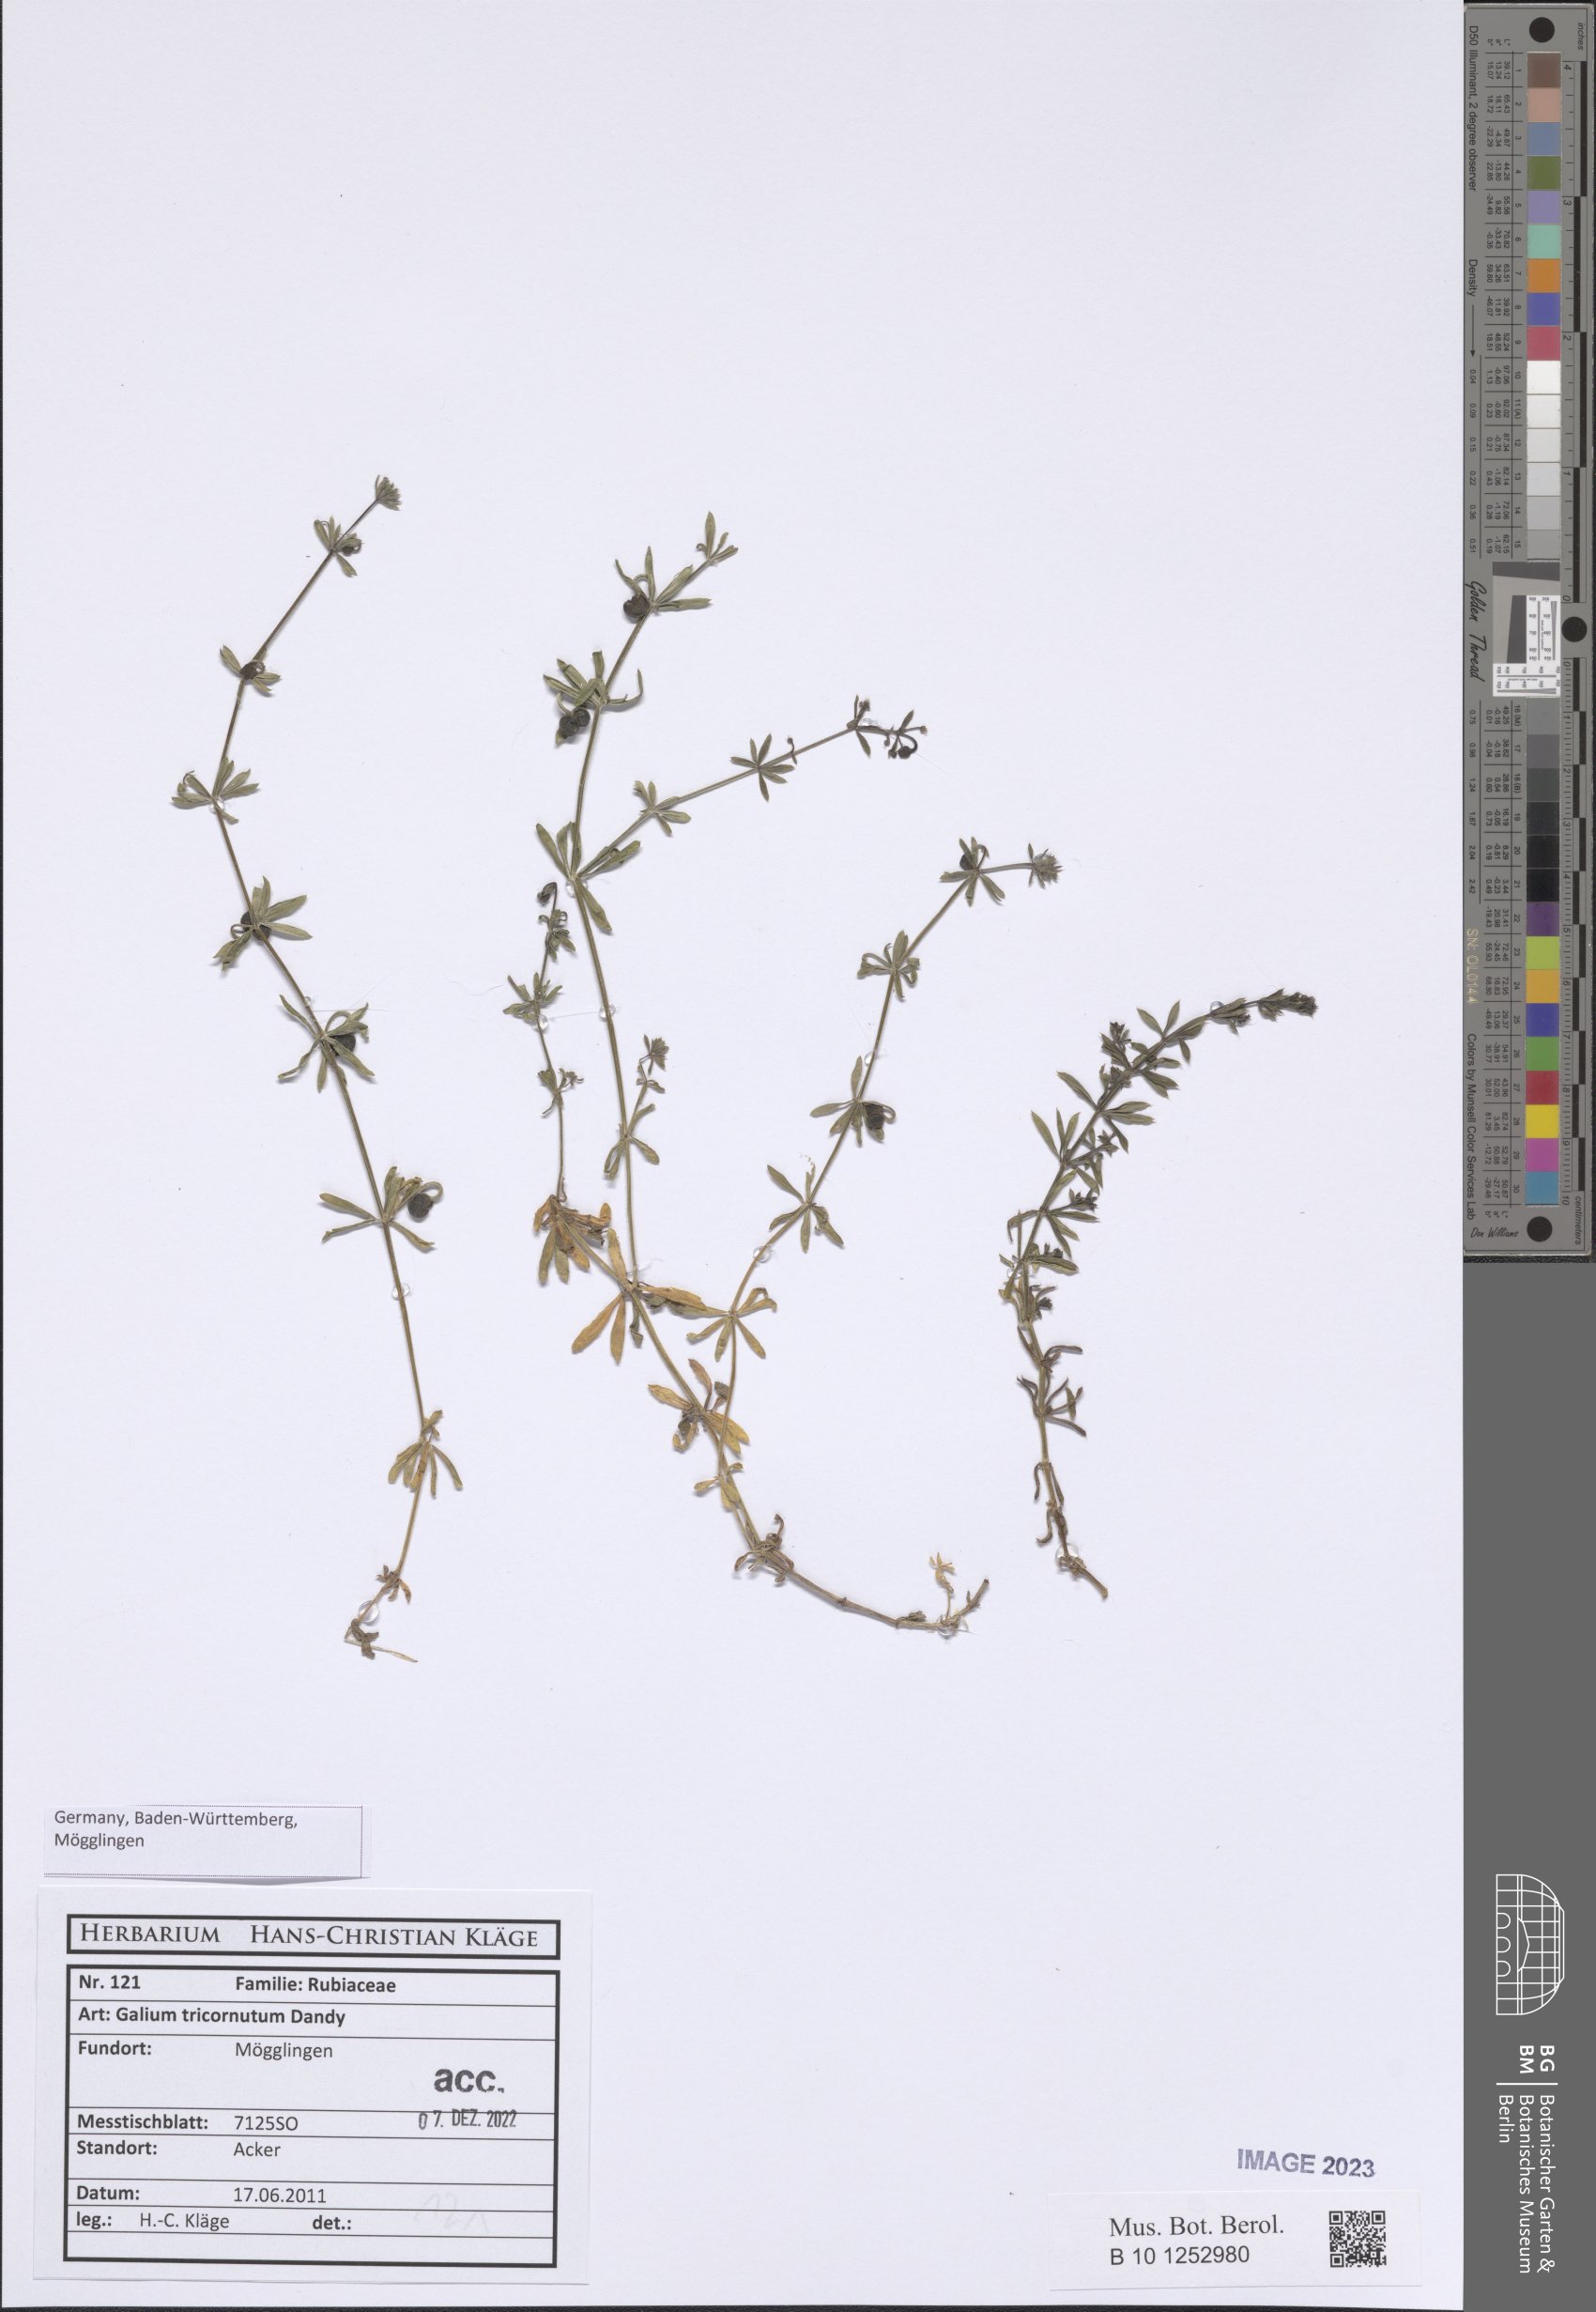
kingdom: Plantae
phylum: Tracheophyta
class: Magnoliopsida
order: Gentianales
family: Rubiaceae
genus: Galium
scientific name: Galium tricornutum
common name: Corn cleavers
